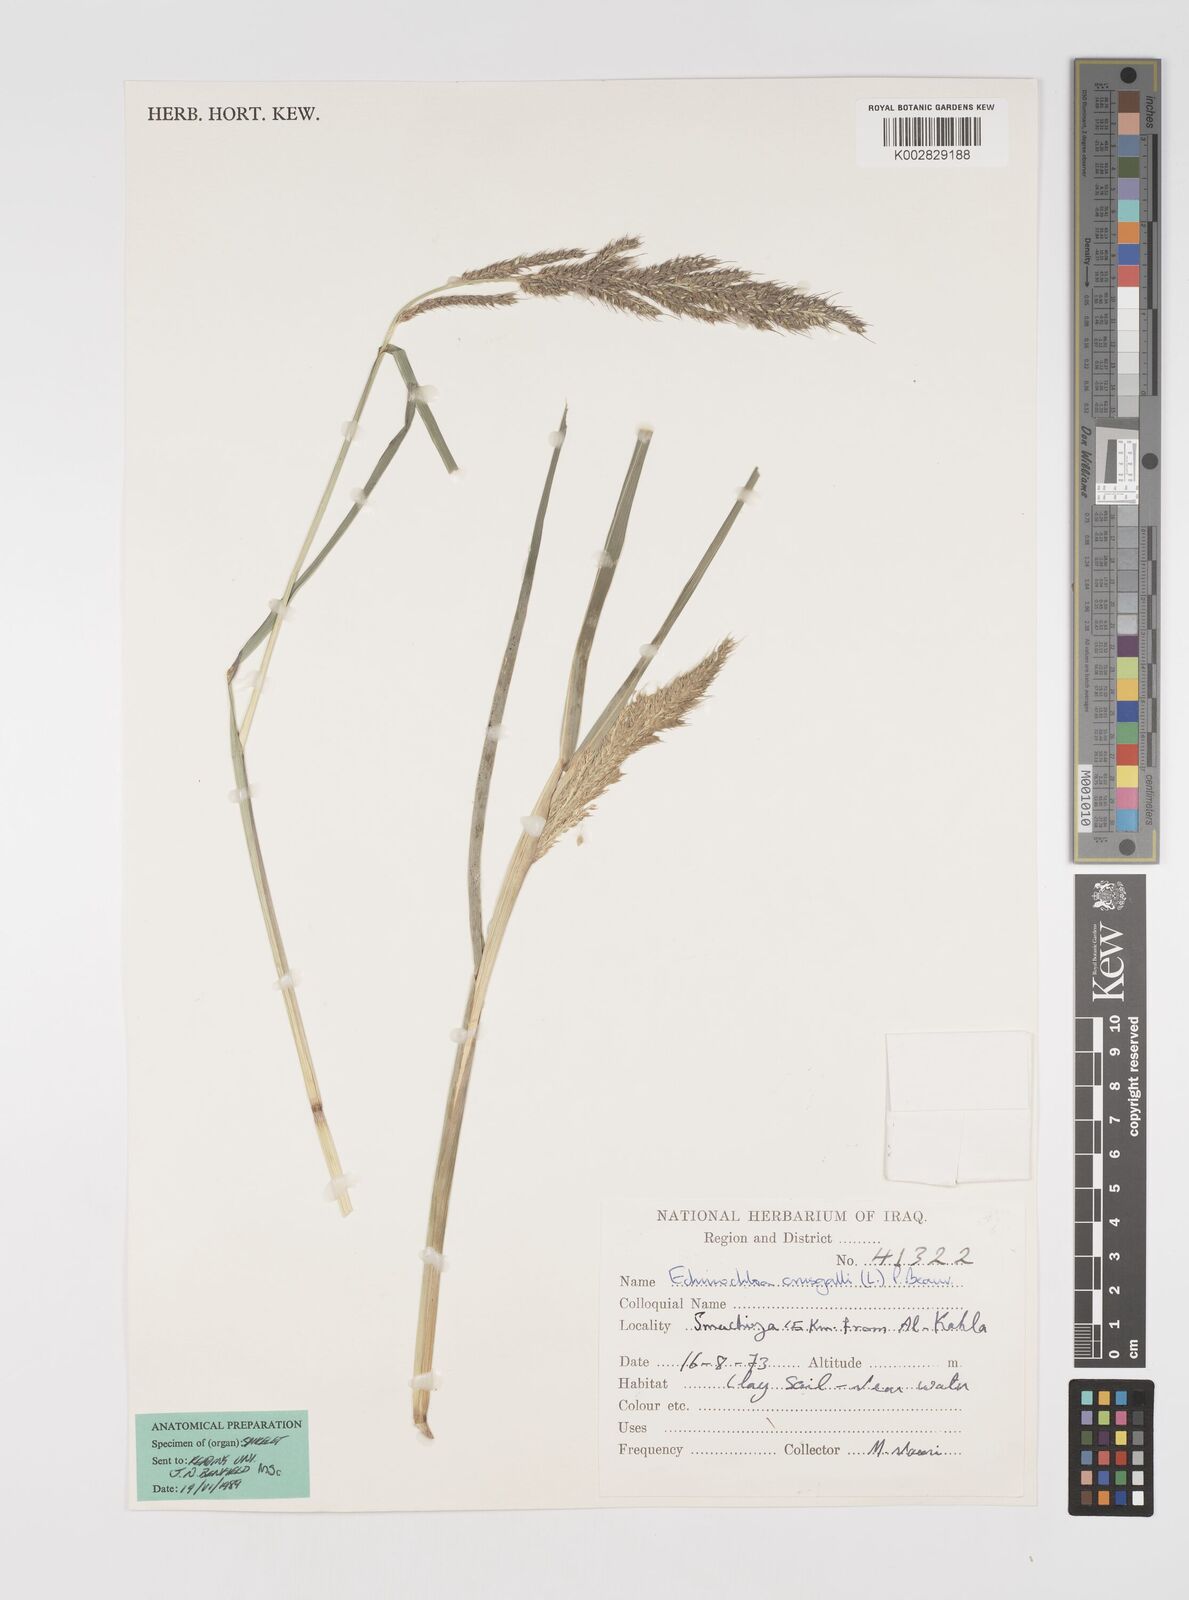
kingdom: Plantae
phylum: Tracheophyta
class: Liliopsida
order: Poales
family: Poaceae
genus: Echinochloa
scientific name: Echinochloa crus-galli
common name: Cockspur
